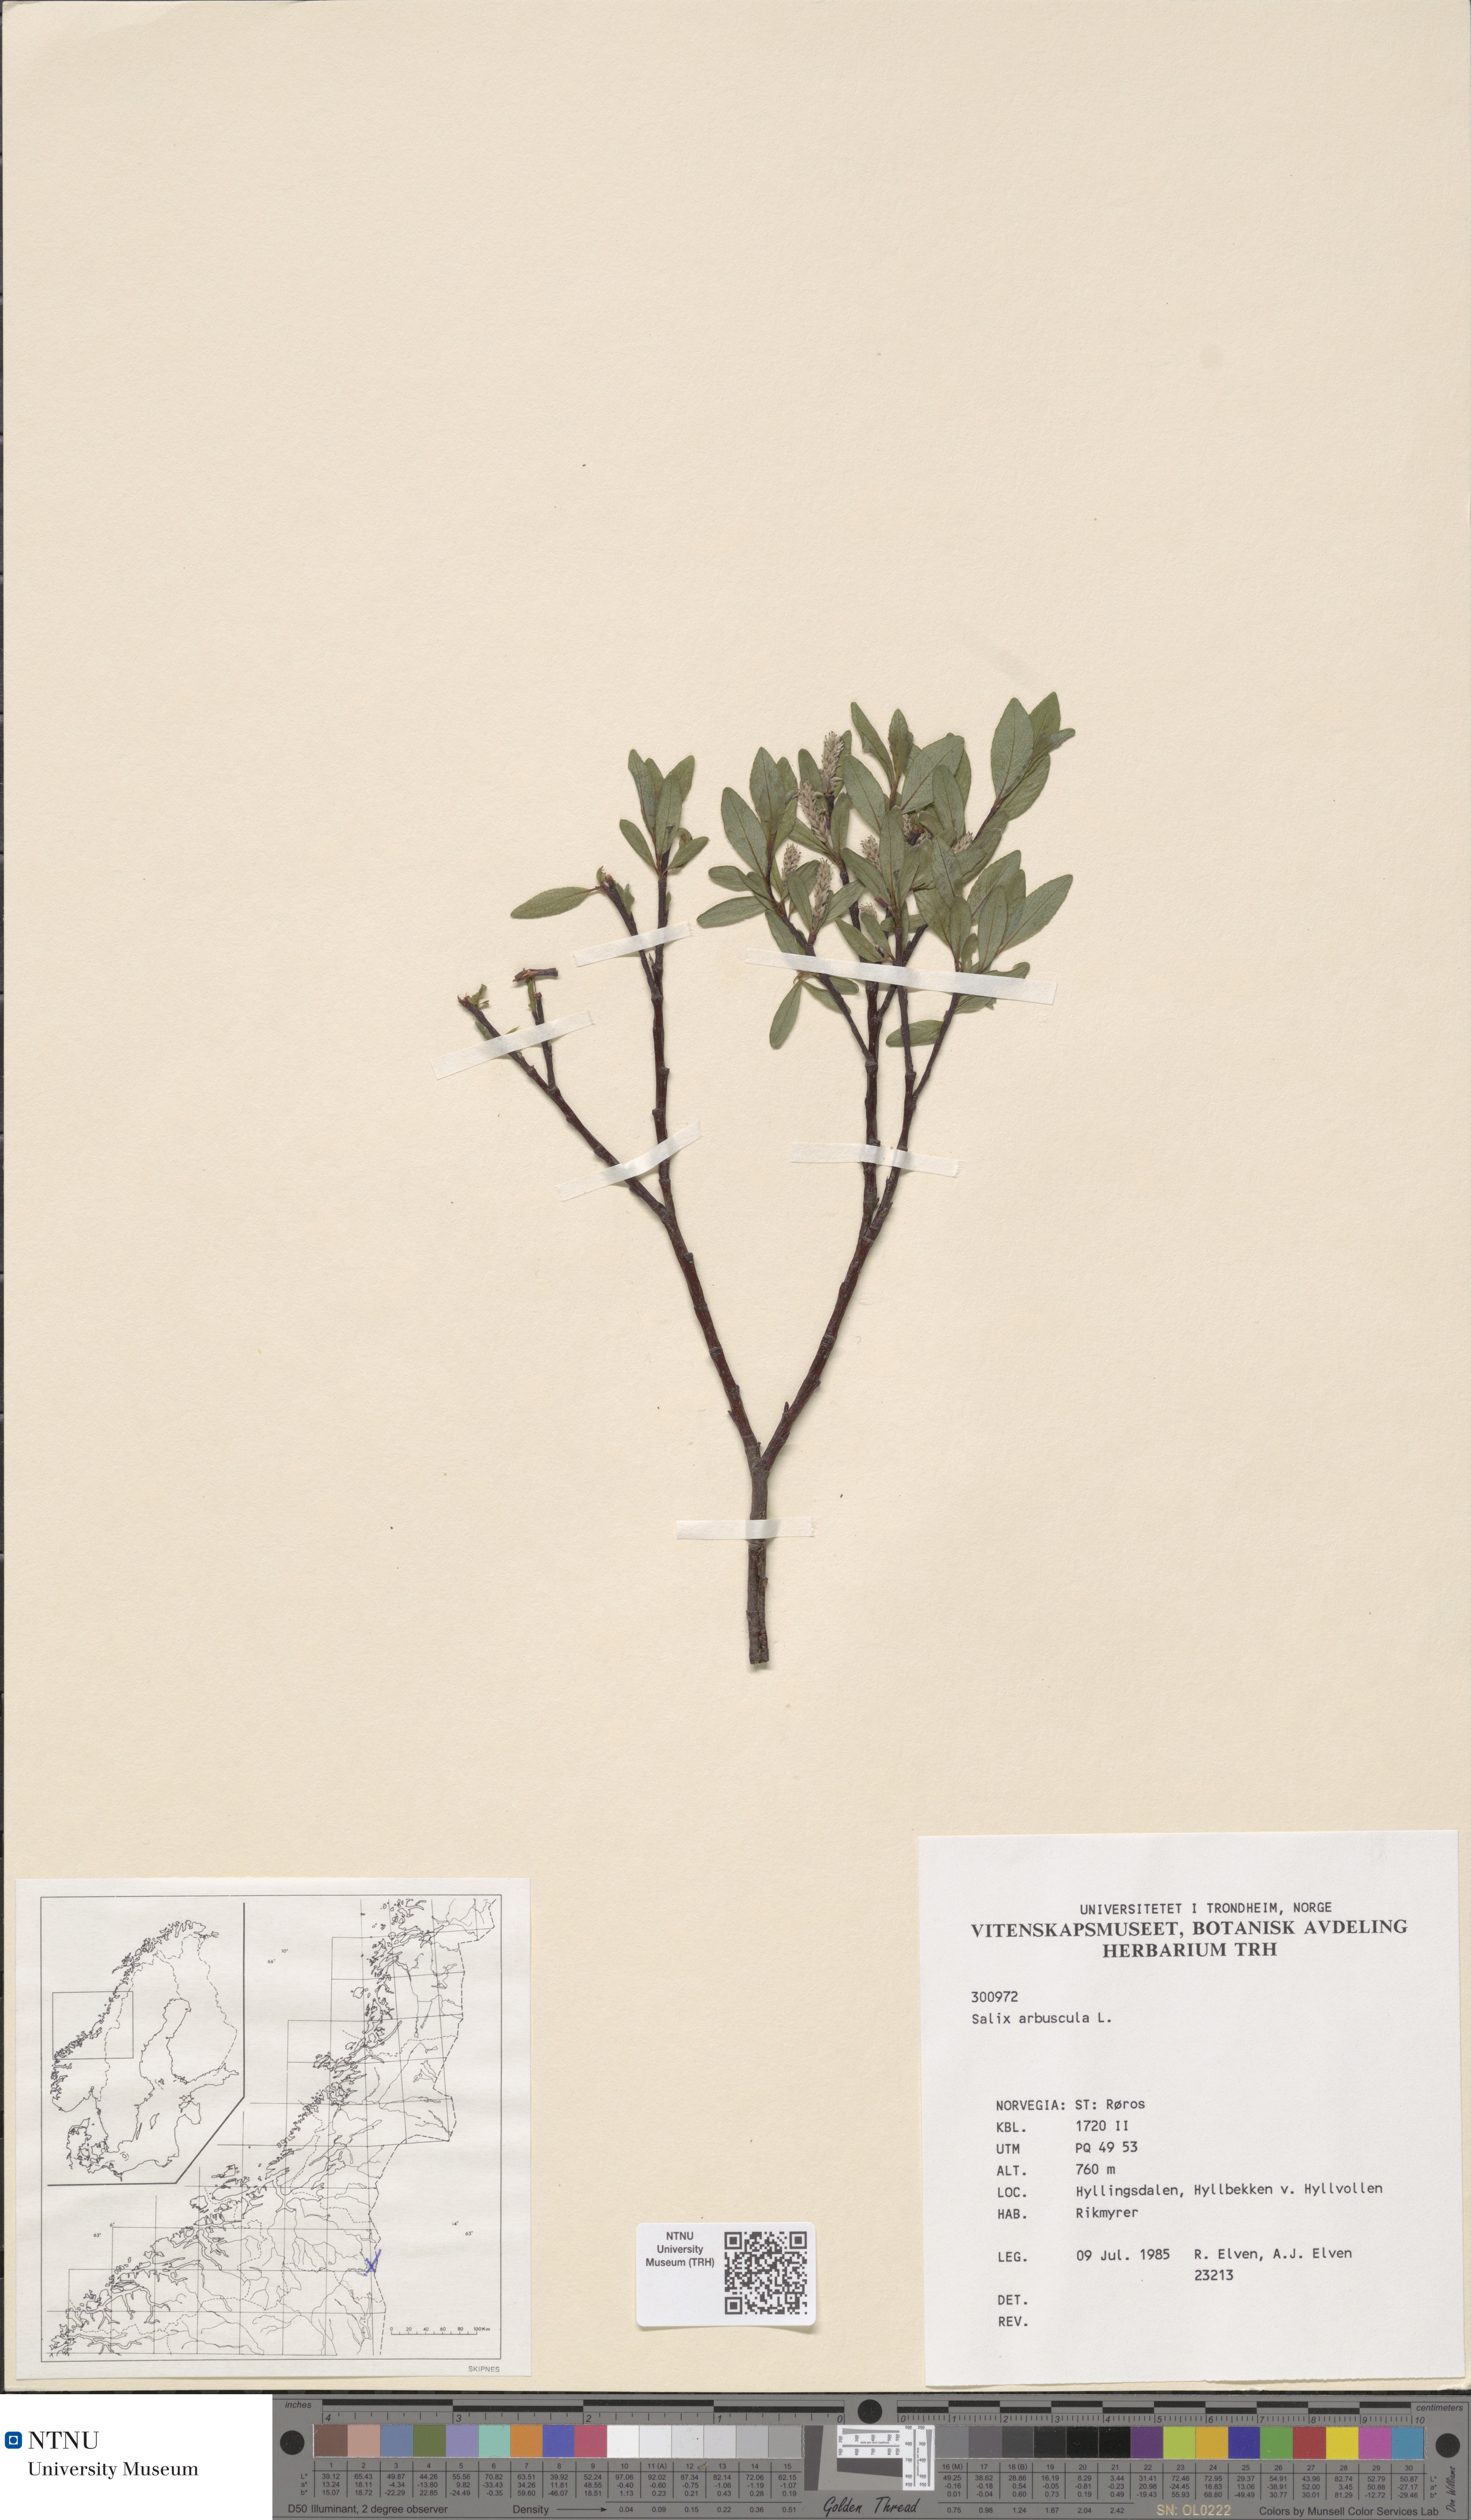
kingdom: Plantae
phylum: Tracheophyta
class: Magnoliopsida
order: Malpighiales
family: Salicaceae
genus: Salix
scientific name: Salix arbuscula
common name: Mountain willow
